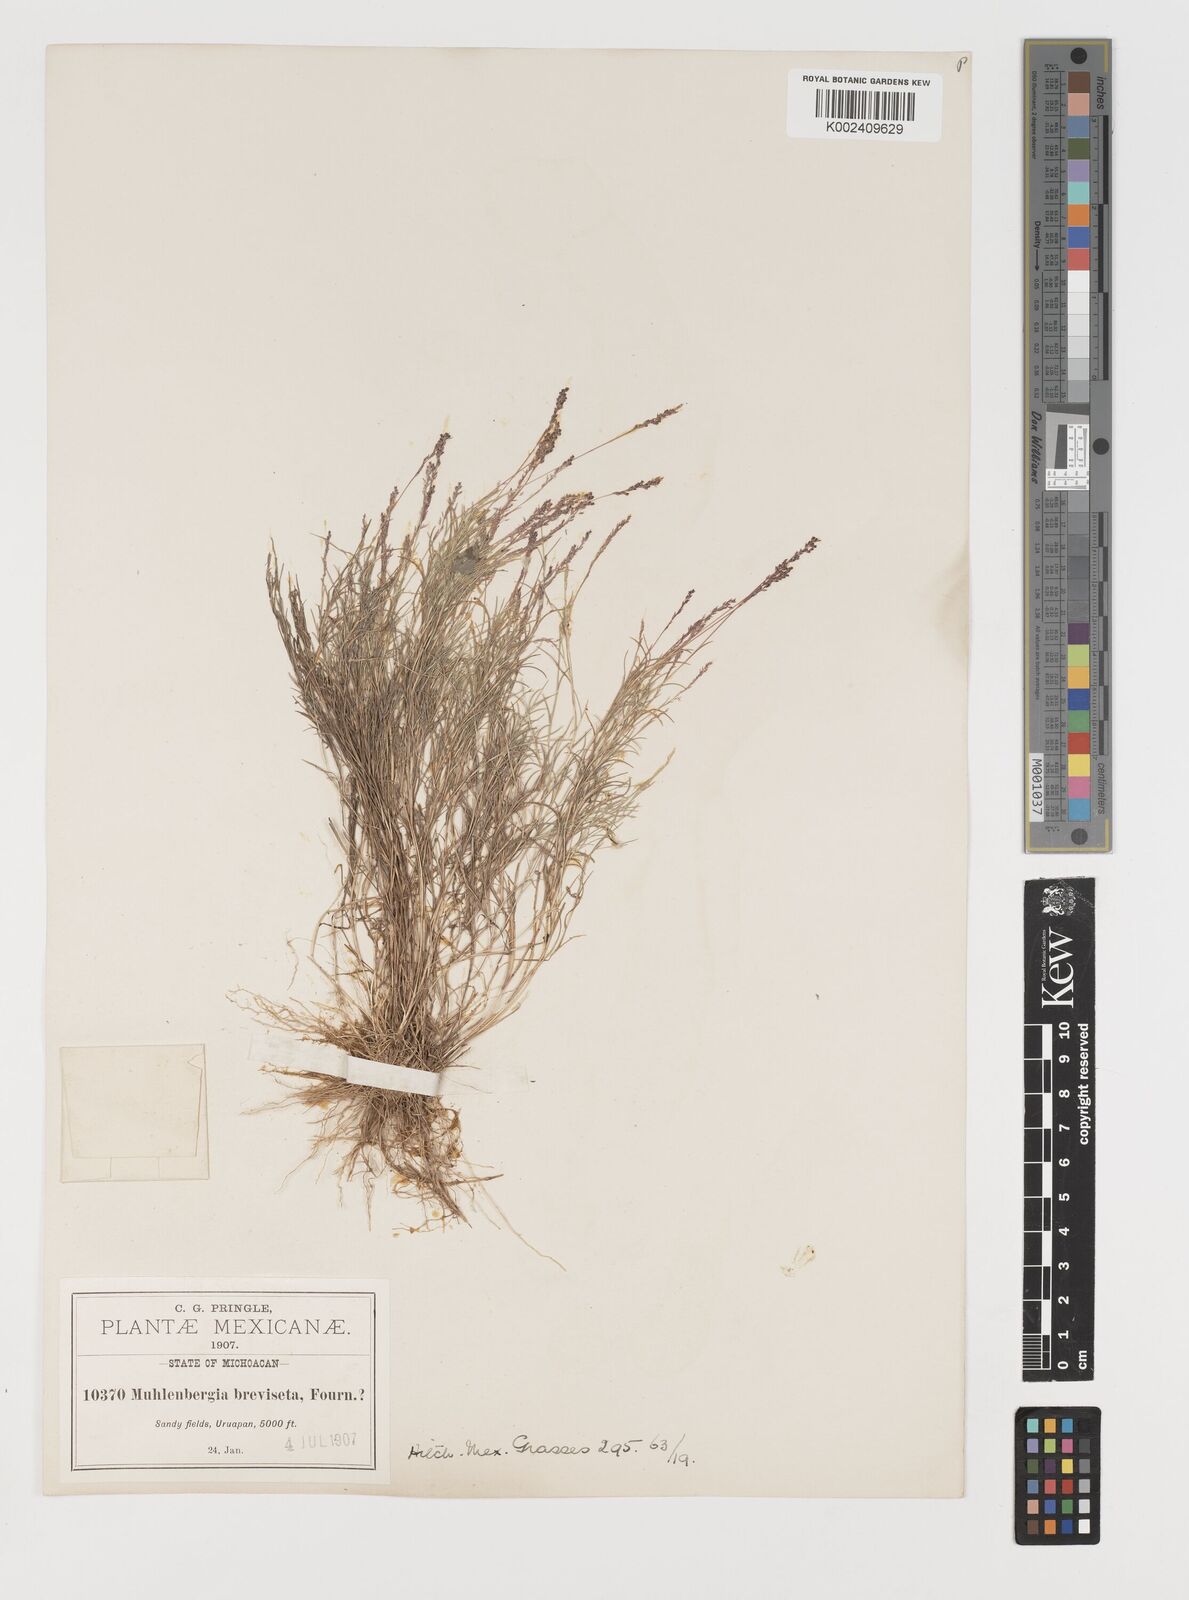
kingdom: Plantae
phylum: Tracheophyta
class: Liliopsida
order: Poales
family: Poaceae
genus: Muhlenbergia
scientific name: Muhlenbergia breviseta
